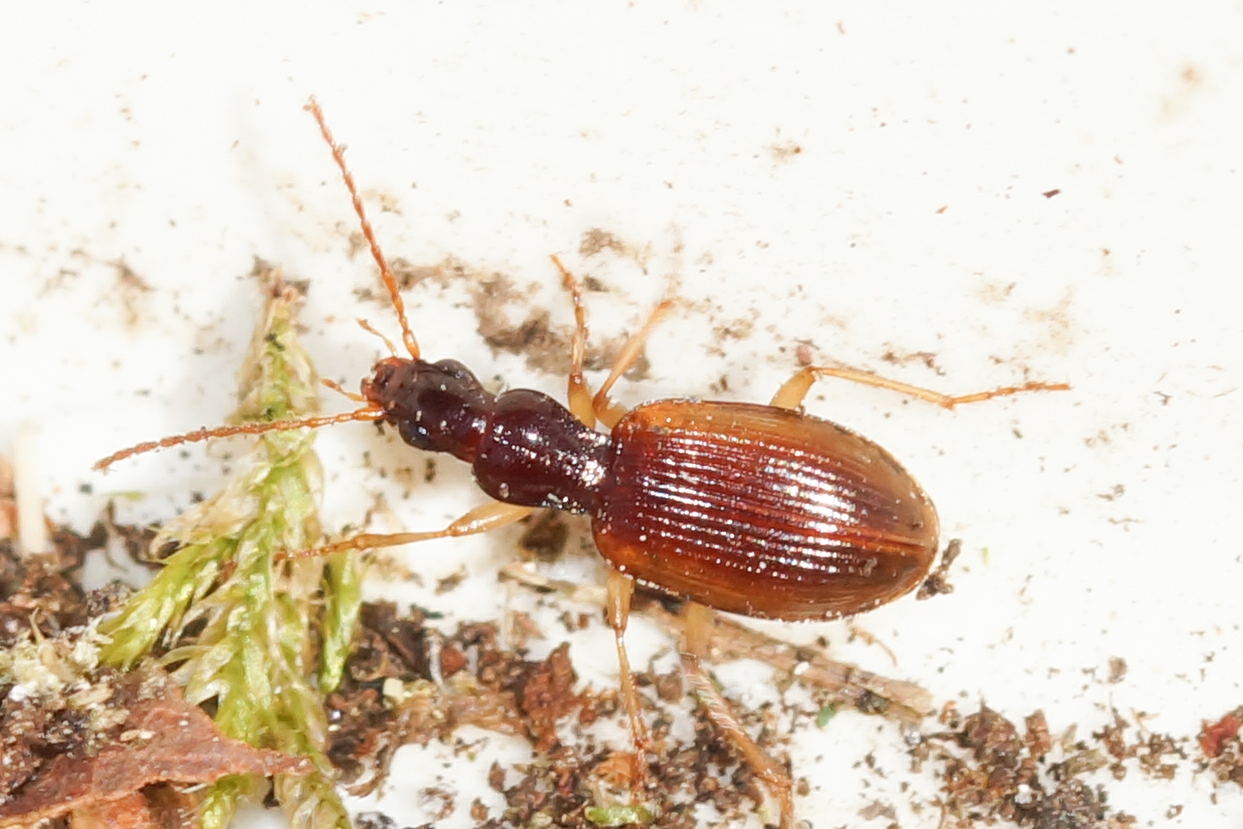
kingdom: Animalia
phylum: Arthropoda
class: Insecta
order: Coleoptera
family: Carabidae
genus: Oxypselaphus
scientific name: Oxypselaphus obscurus
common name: Rødbrun kvikløber
